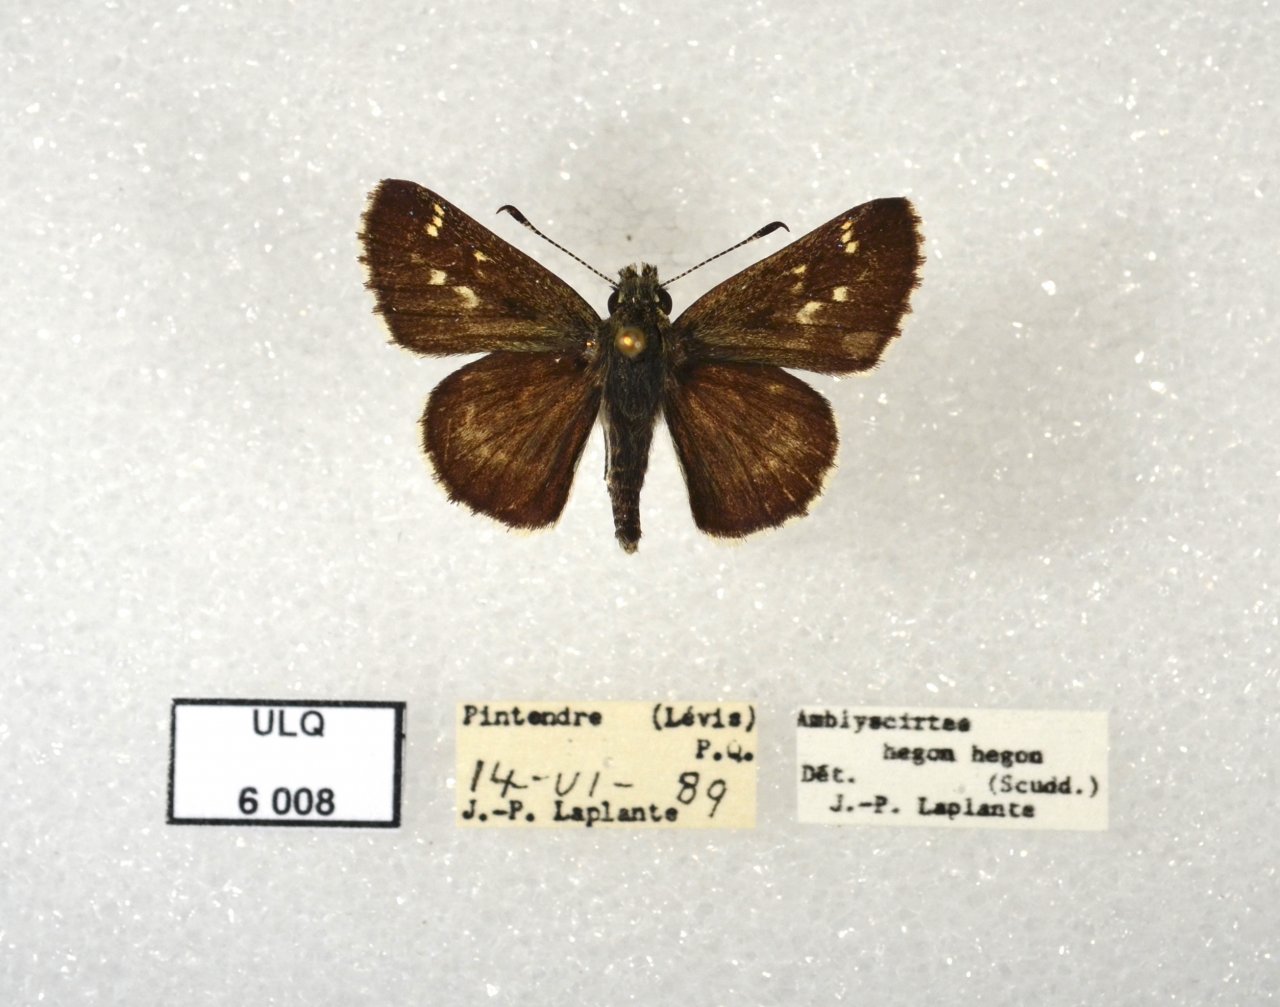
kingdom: Animalia
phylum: Arthropoda
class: Insecta
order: Lepidoptera
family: Hesperiidae
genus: Mastor
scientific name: Mastor hegon
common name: Pepper and Salt Skipper
